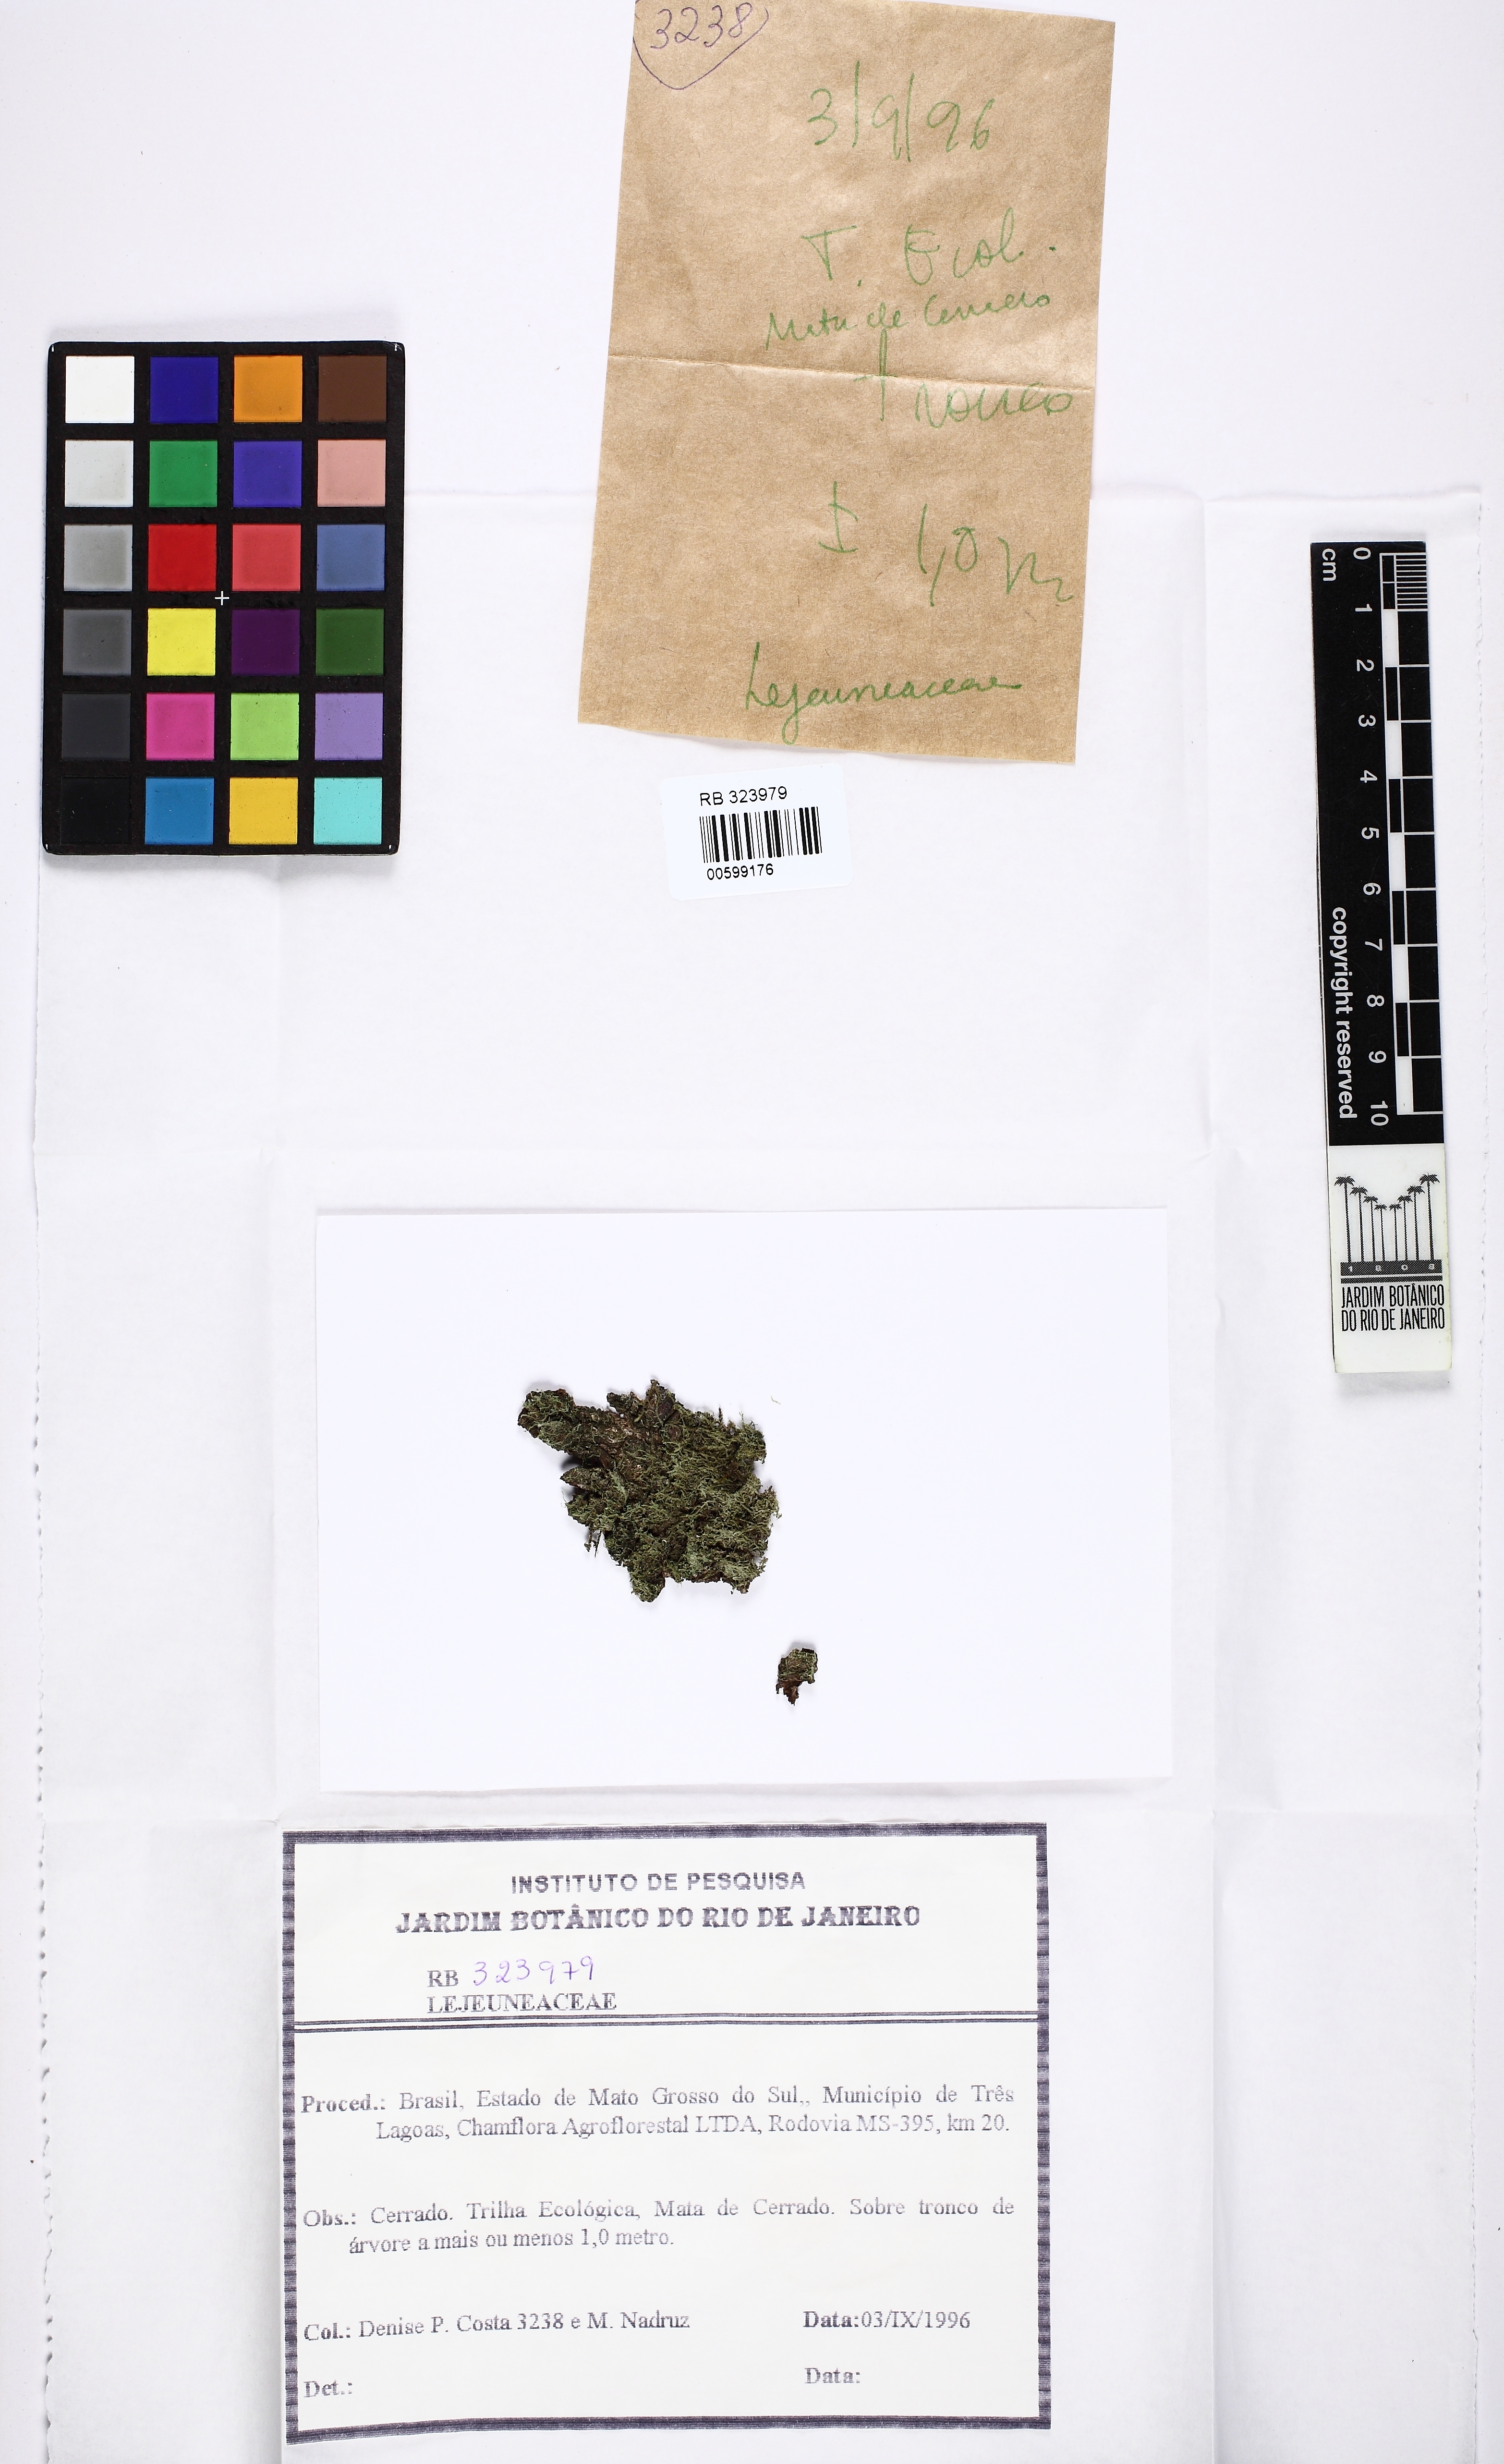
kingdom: Plantae
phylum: Marchantiophyta
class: Jungermanniopsida
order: Porellales
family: Lejeuneaceae
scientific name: Lejeuneaceae
